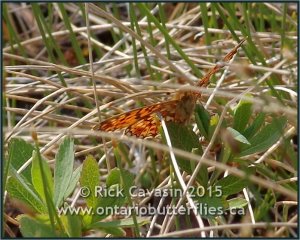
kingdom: Animalia
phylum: Arthropoda
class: Insecta
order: Lepidoptera
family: Nymphalidae
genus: Boloria
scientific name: Boloria selene
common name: Silver-bordered Fritillary
